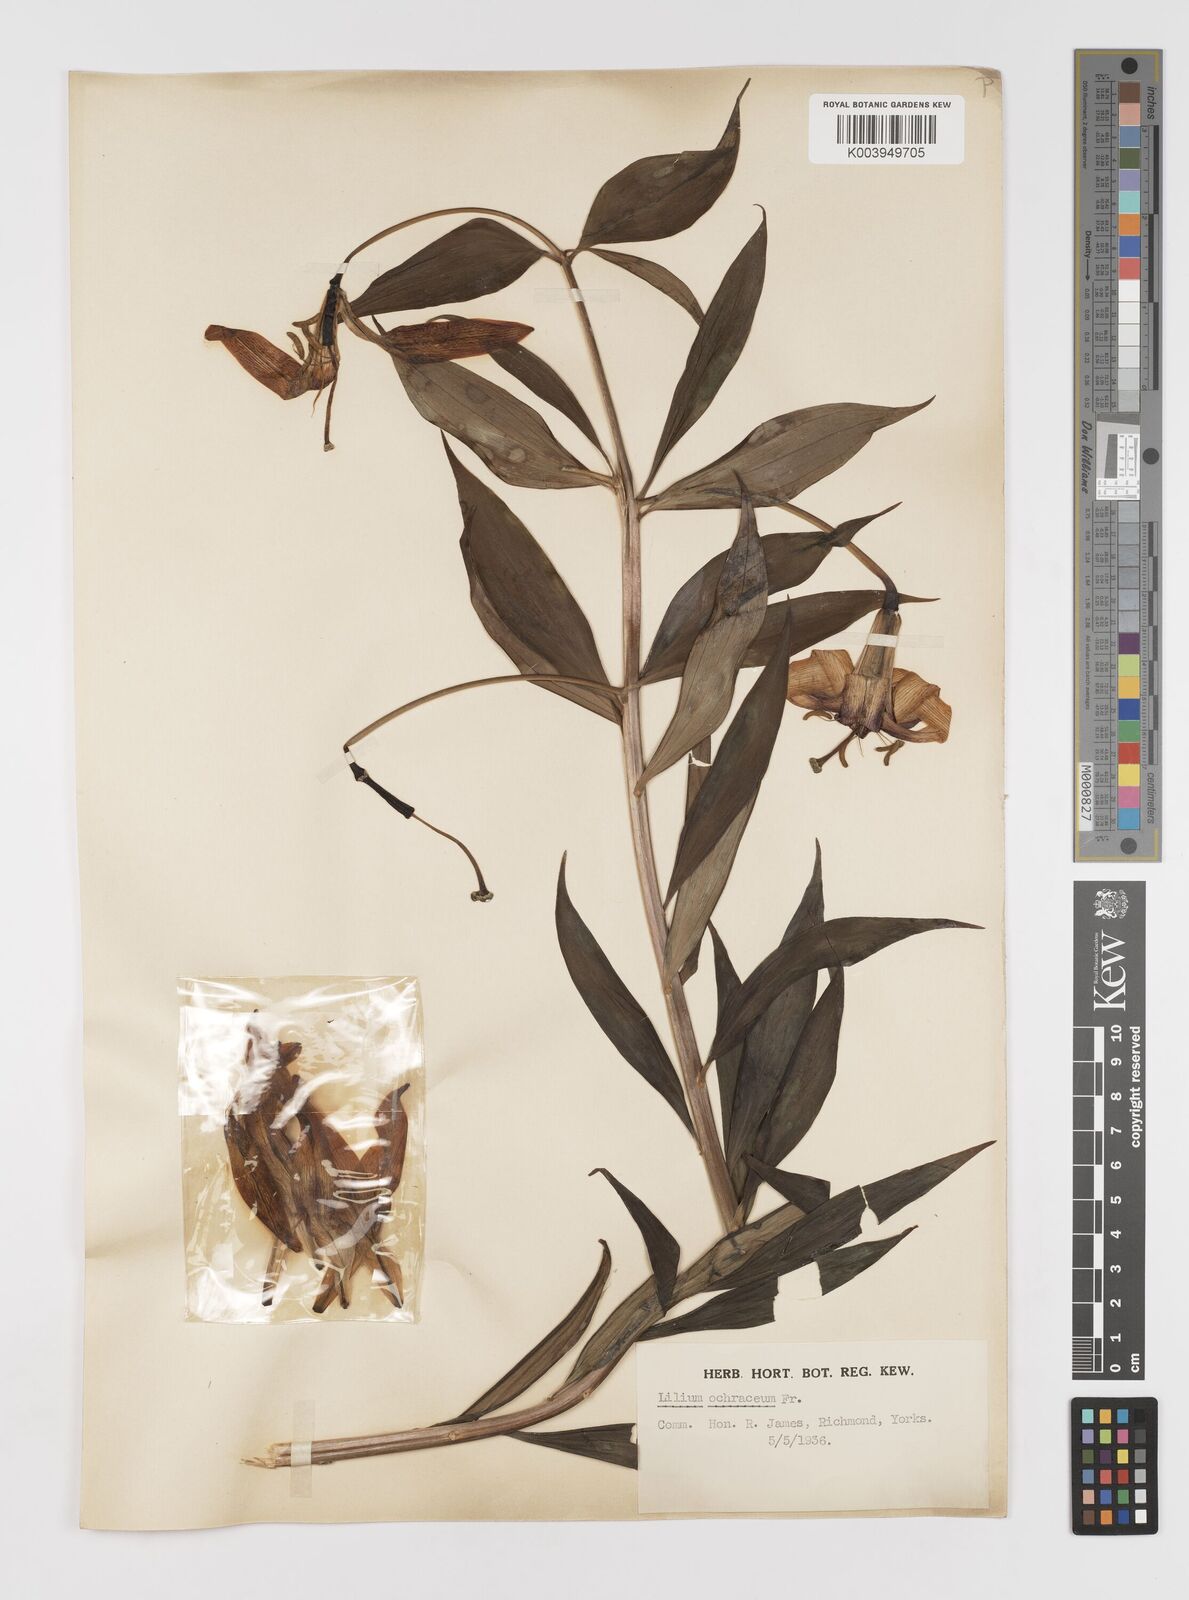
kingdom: Plantae
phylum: Tracheophyta
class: Liliopsida
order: Liliales
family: Liliaceae
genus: Lilium
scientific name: Lilium primulinum
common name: Ochre lily
